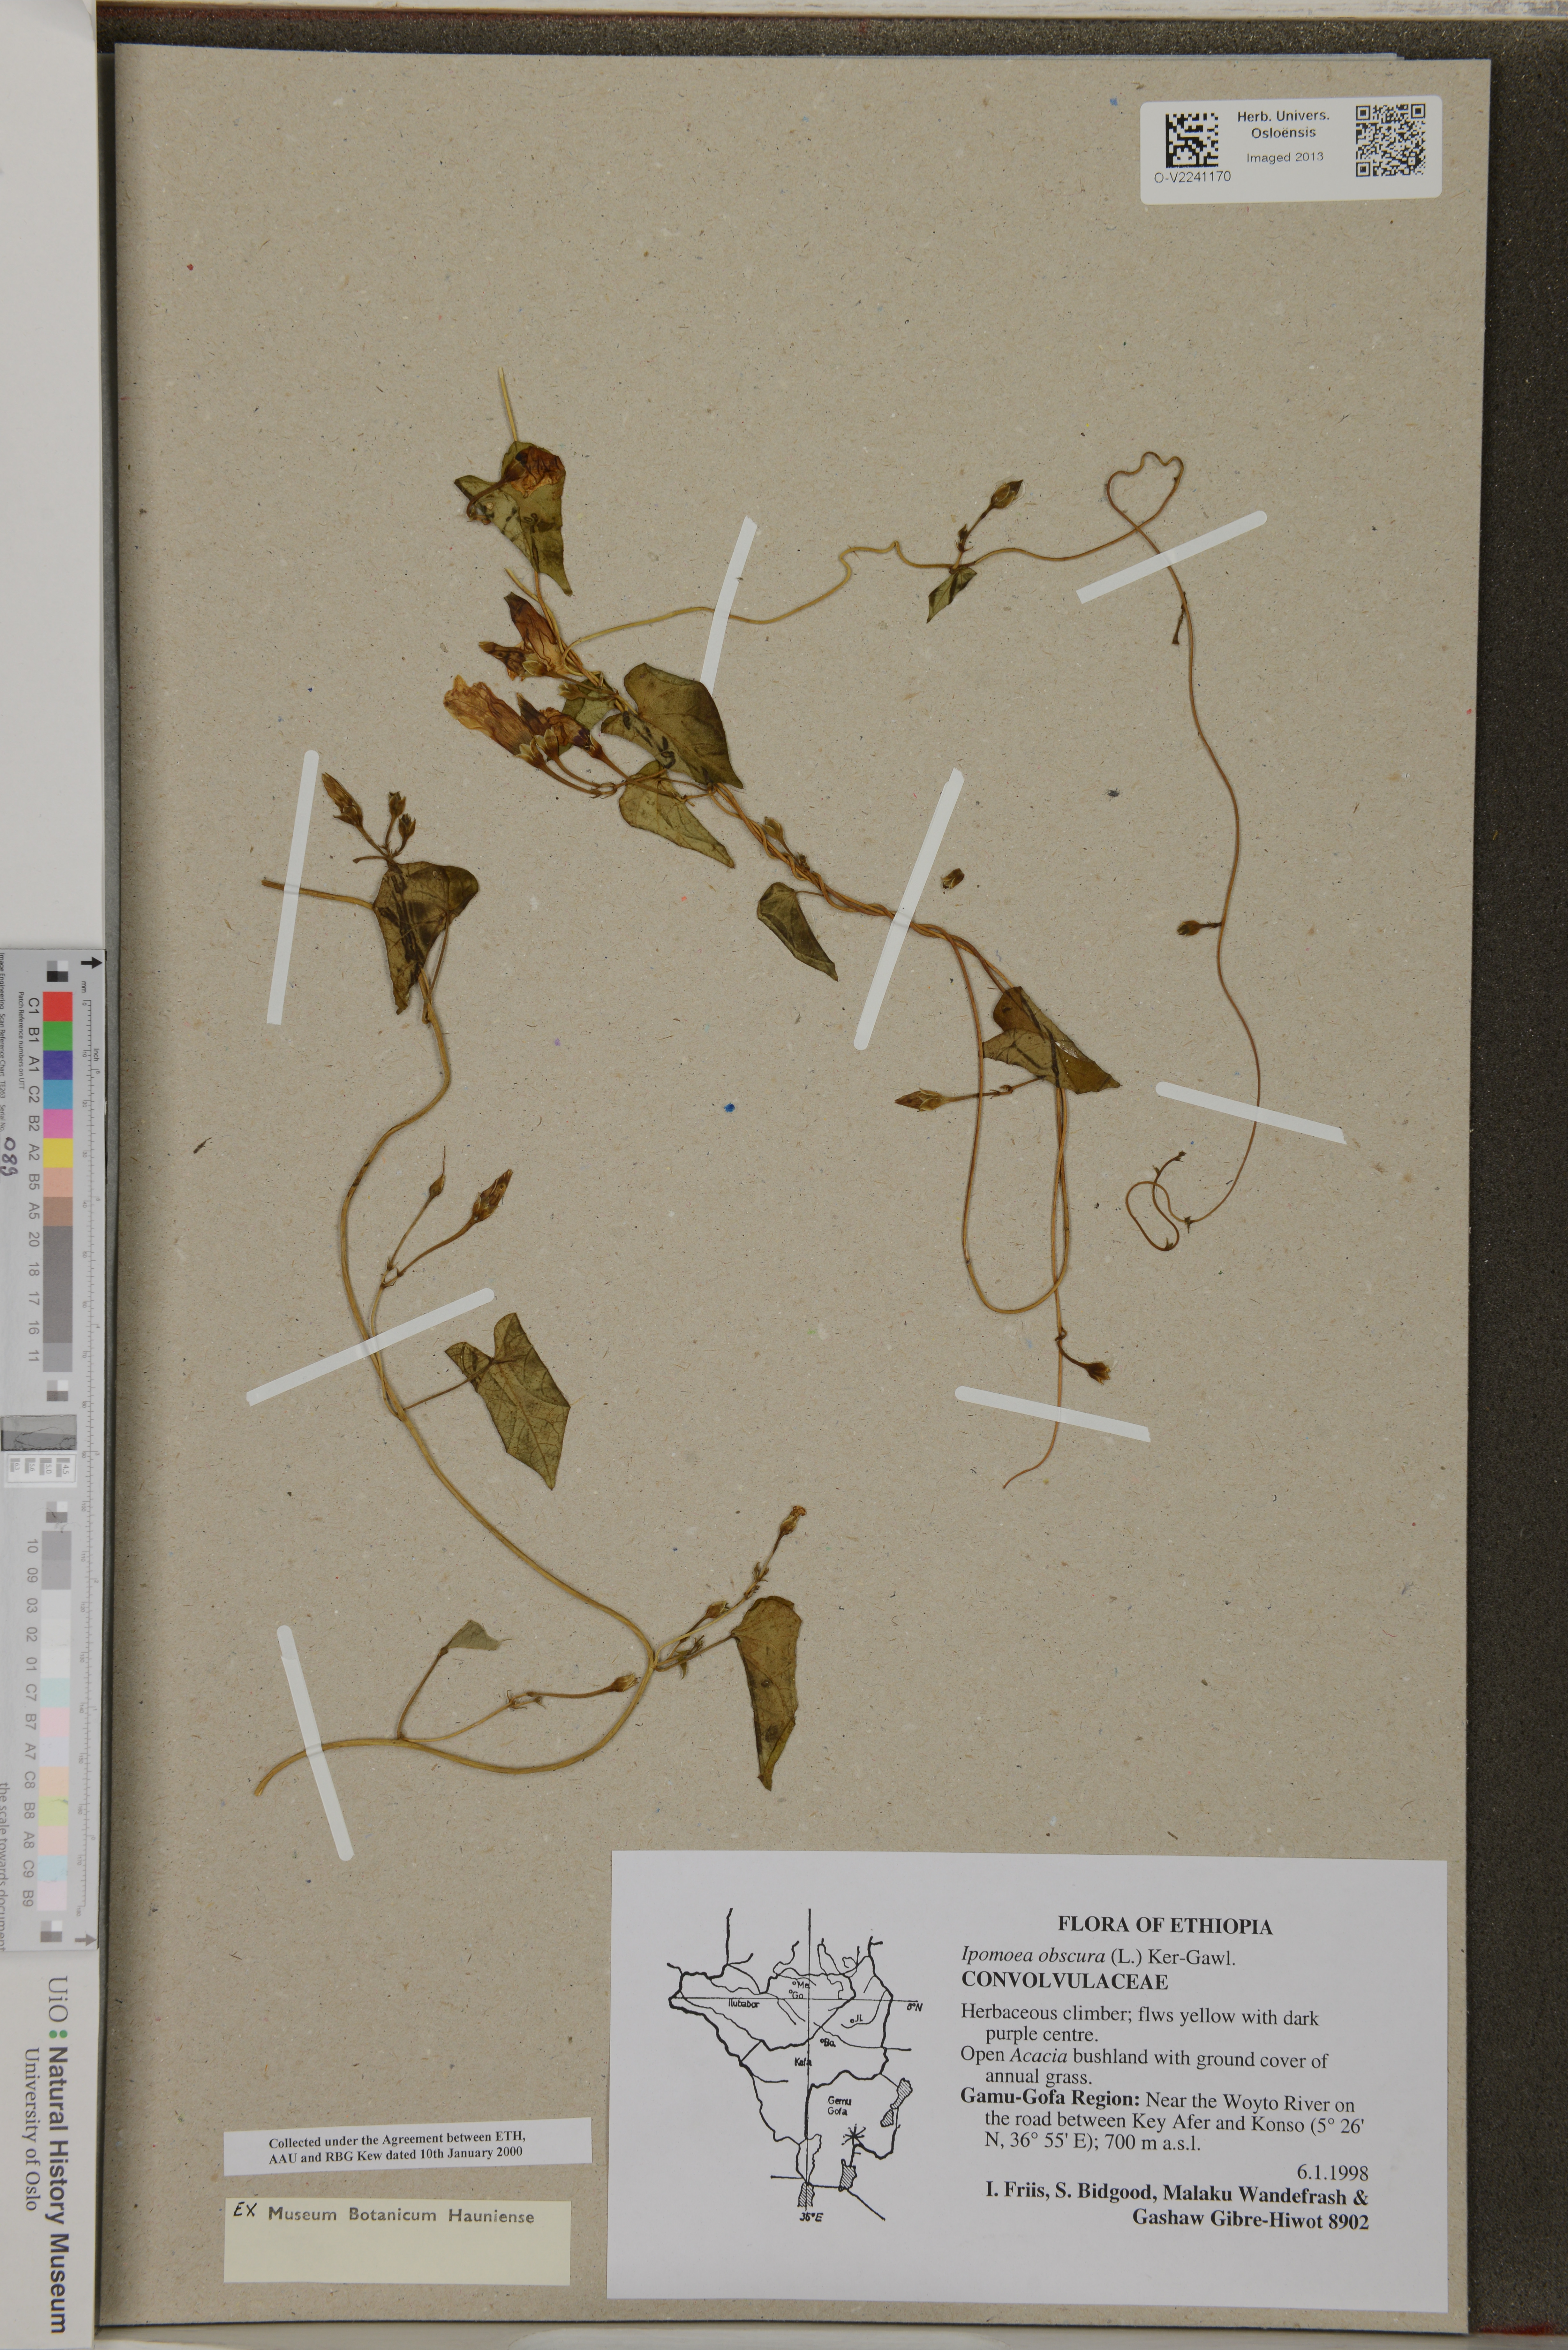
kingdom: Plantae
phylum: Tracheophyta
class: Magnoliopsida
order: Solanales
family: Convolvulaceae
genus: Ipomoea
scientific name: Ipomoea obscura
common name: Obscure morning-glory
